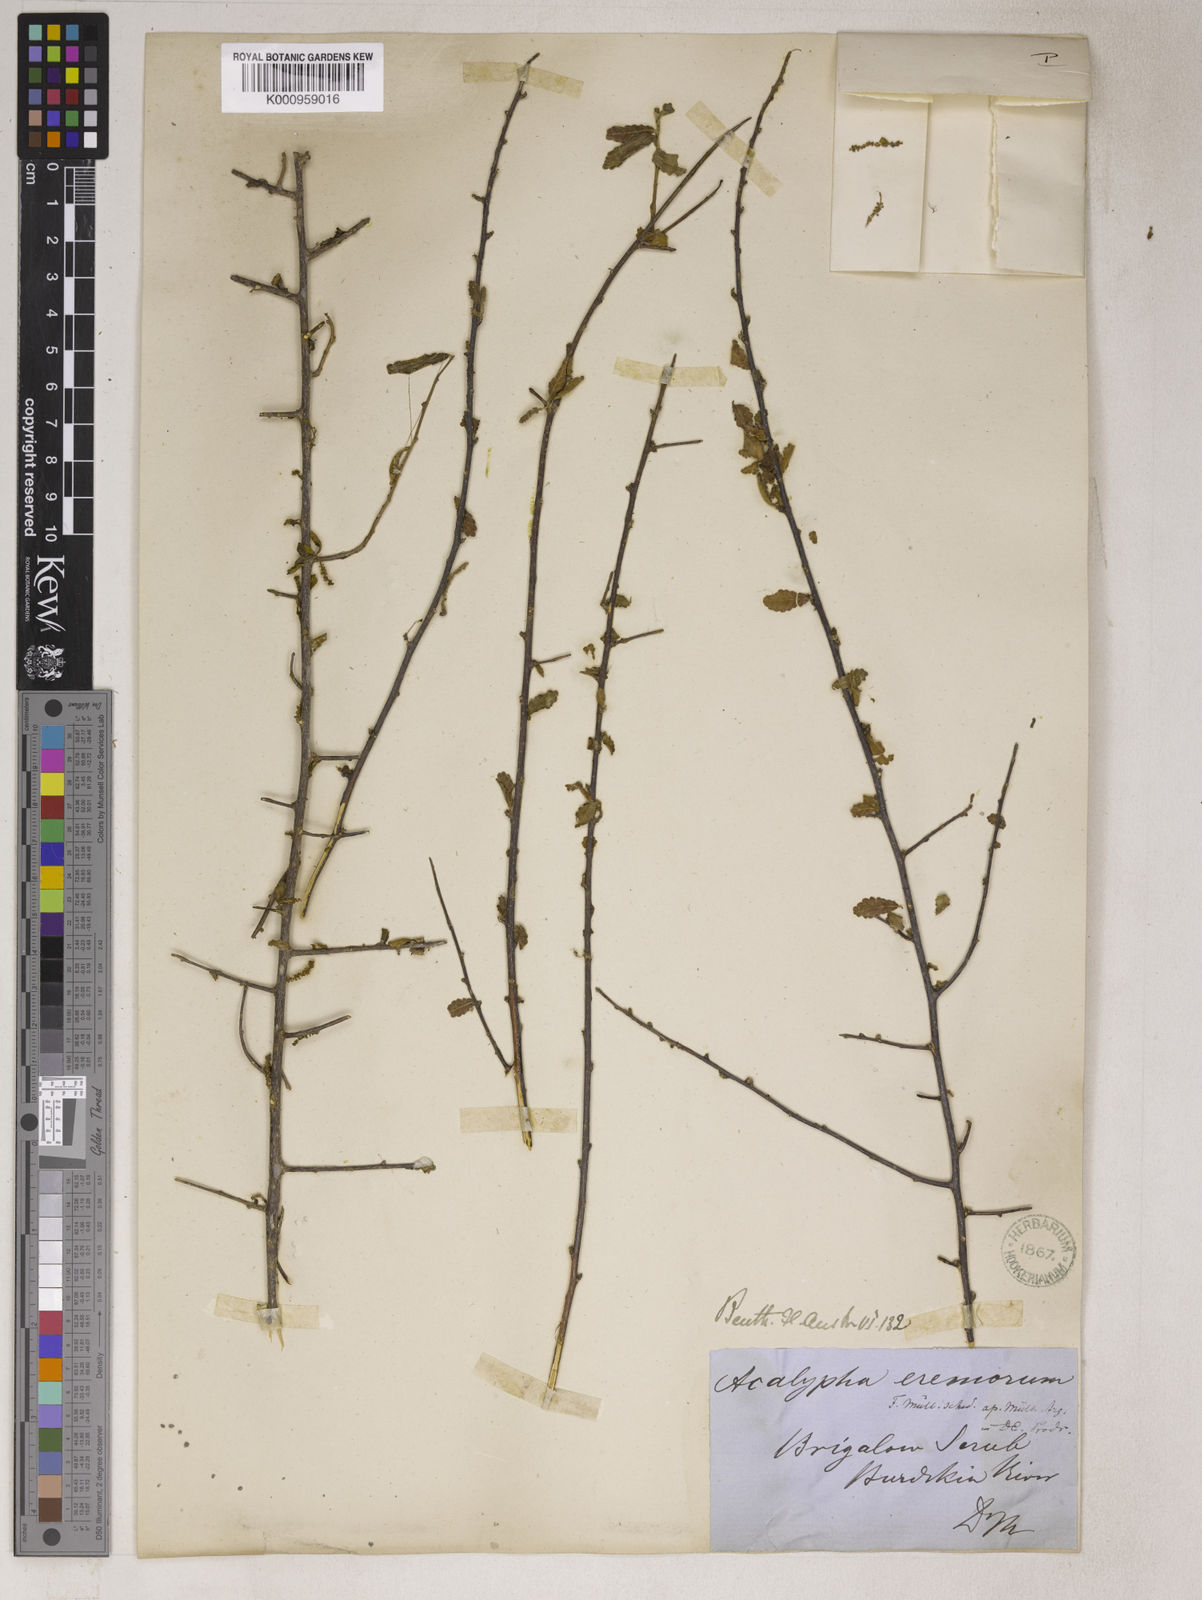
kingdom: Plantae
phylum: Tracheophyta
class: Magnoliopsida
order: Malpighiales
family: Euphorbiaceae
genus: Acalypha
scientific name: Acalypha
